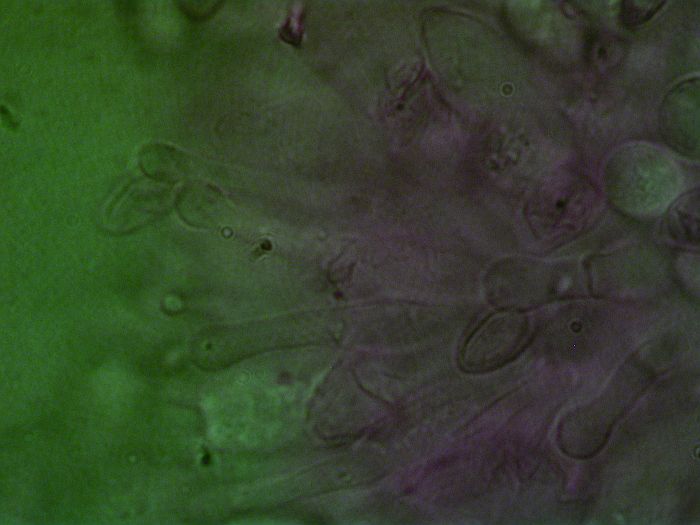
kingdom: Fungi
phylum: Basidiomycota
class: Agaricomycetes
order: Agaricales
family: Hymenogastraceae
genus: Galerina
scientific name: Galerina graminea
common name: plæne-hjelmhat
